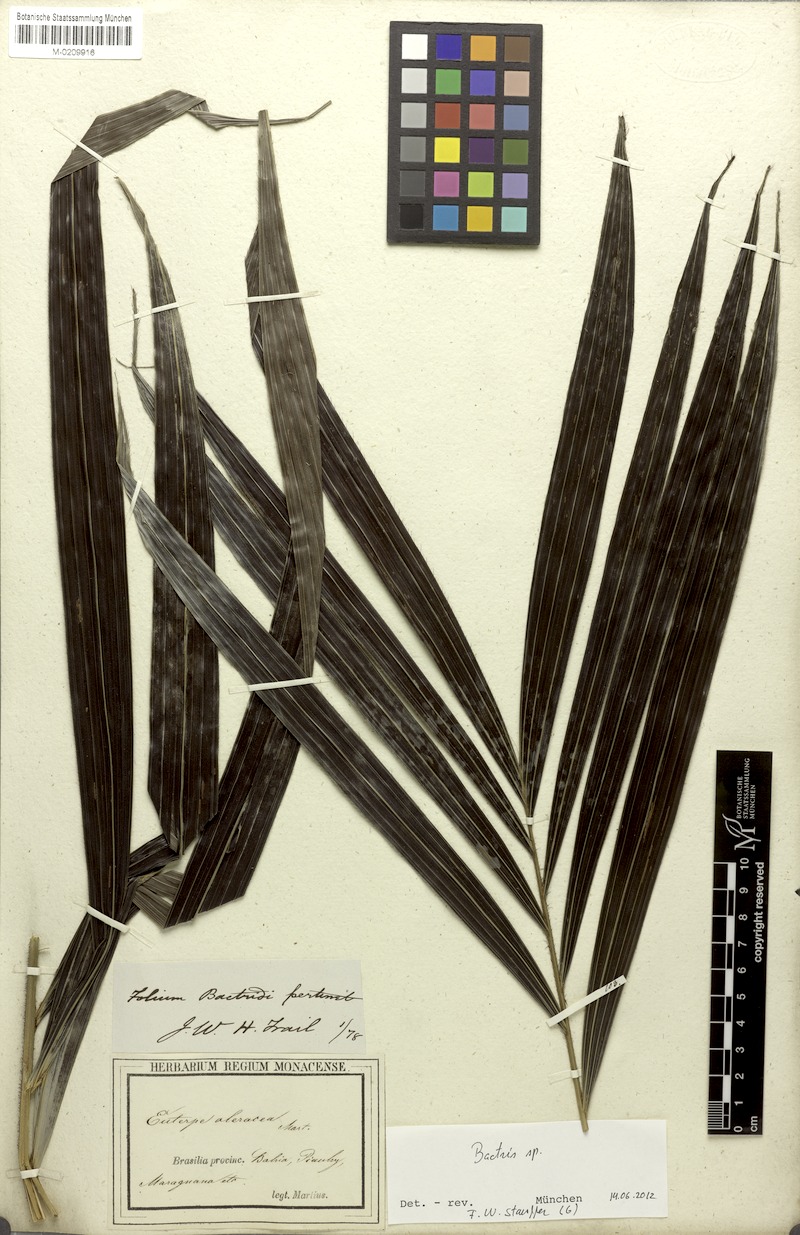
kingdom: Plantae
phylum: Tracheophyta
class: Liliopsida
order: Arecales
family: Arecaceae
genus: Bactris
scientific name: Bactris
